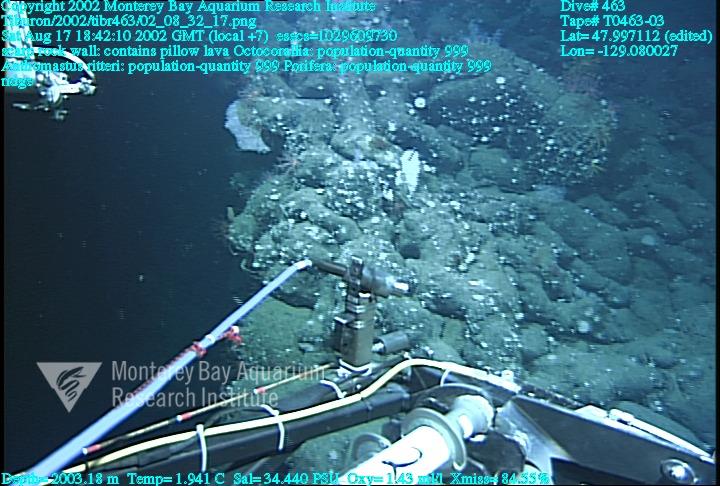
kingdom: Animalia
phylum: Porifera
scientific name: Porifera
